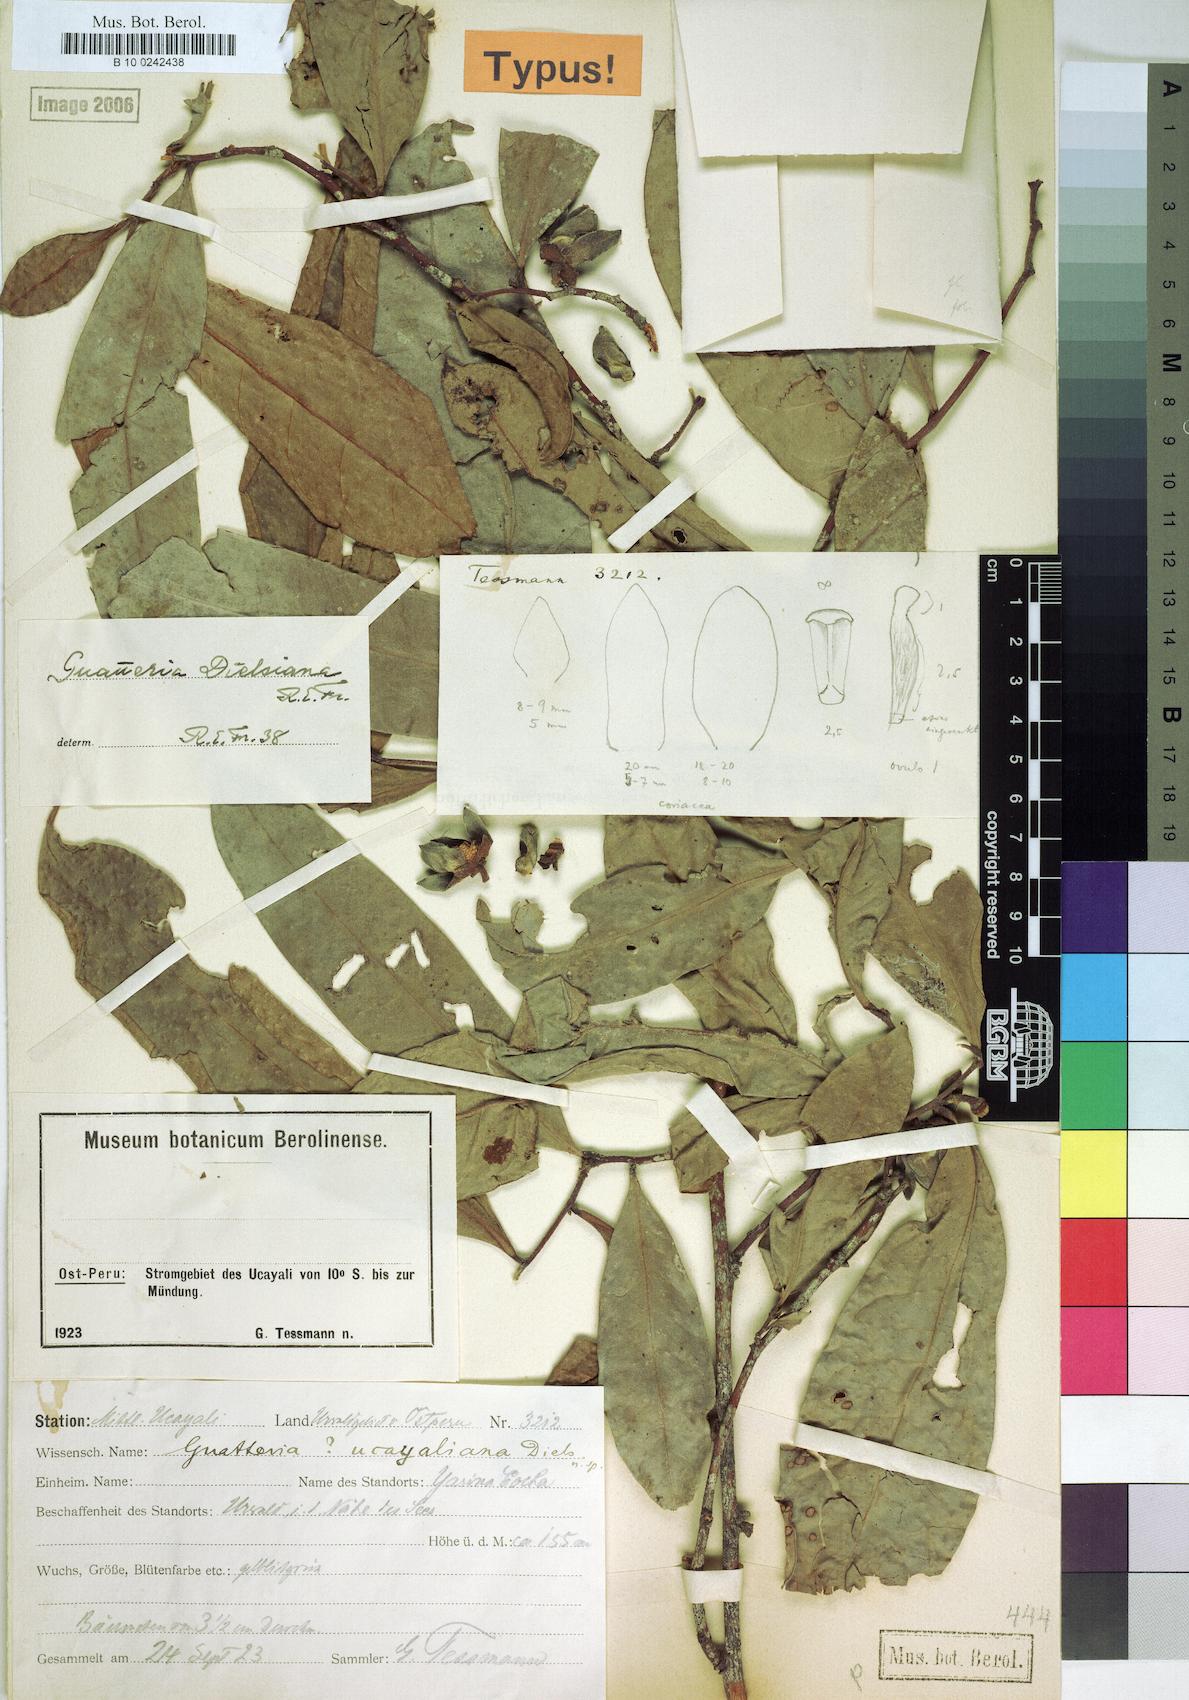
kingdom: Plantae
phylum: Tracheophyta
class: Magnoliopsida
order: Magnoliales
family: Annonaceae
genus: Guatteria
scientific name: Guatteria blepharophylla
